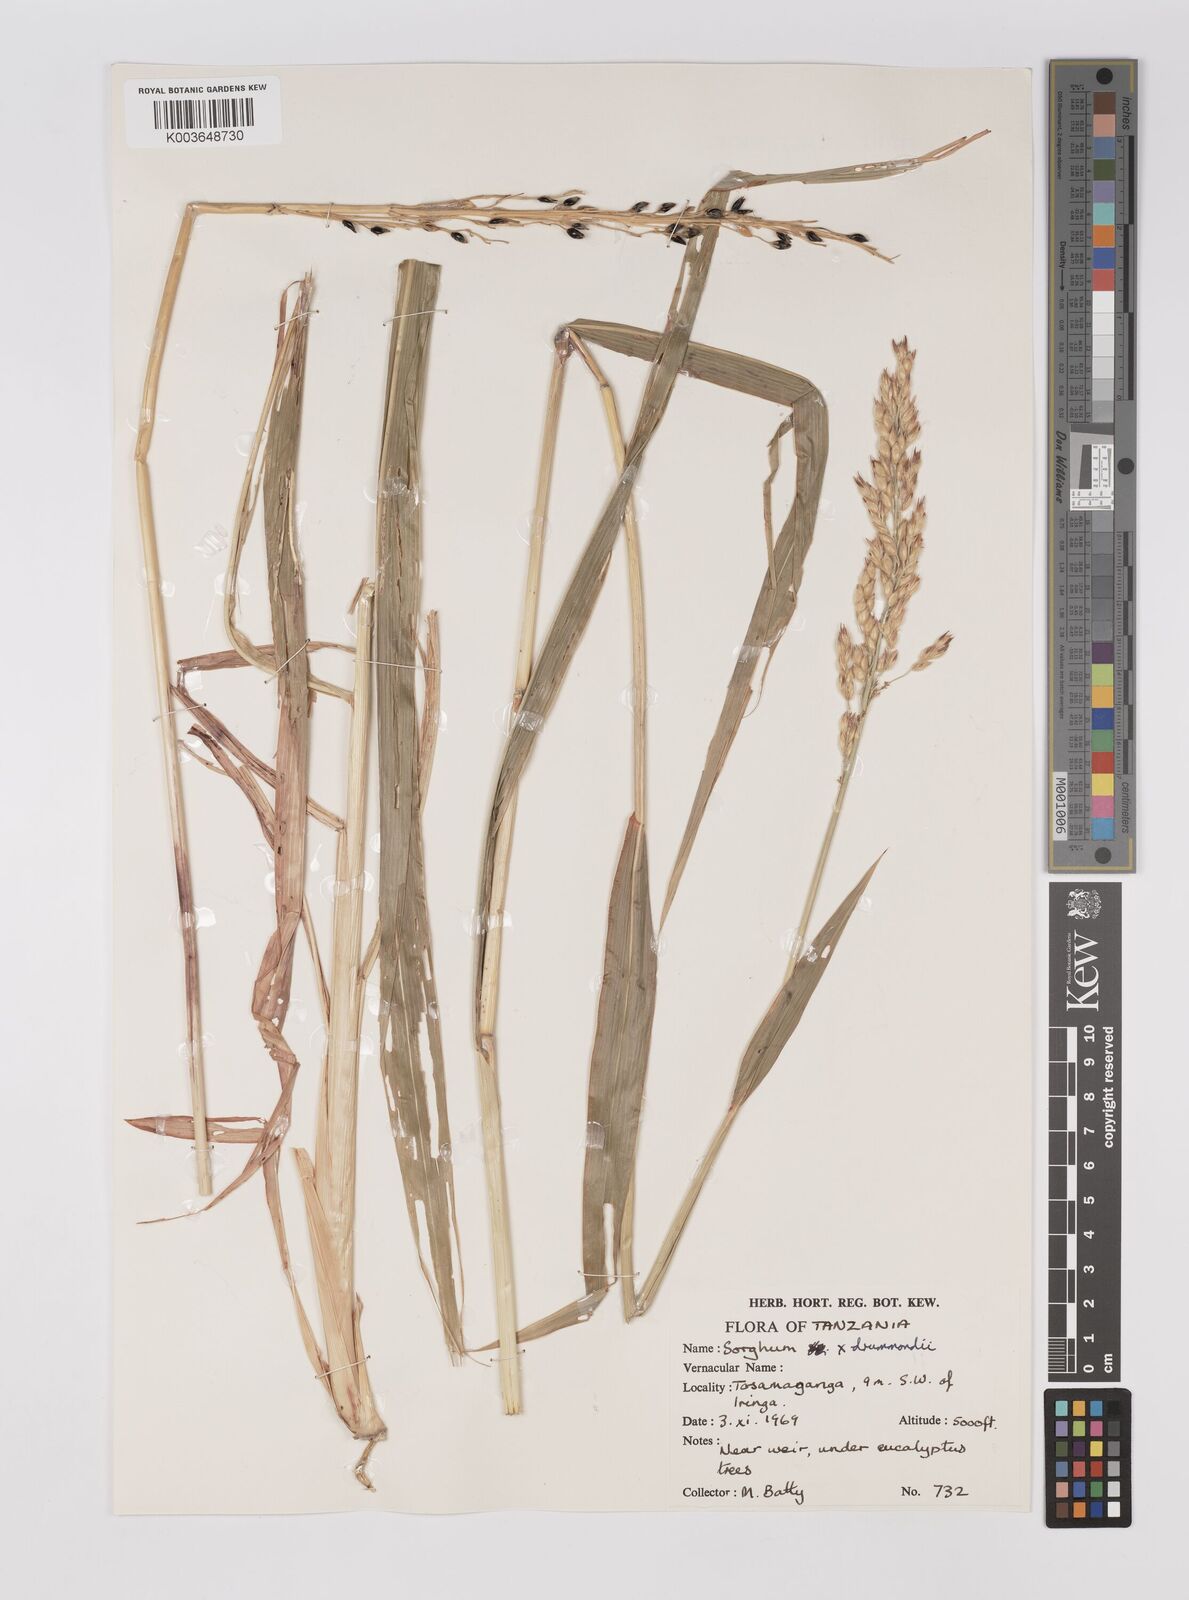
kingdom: Plantae
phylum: Tracheophyta
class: Liliopsida
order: Poales
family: Poaceae
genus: Sorghum
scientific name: Sorghum drummondii
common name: Sudangrass
